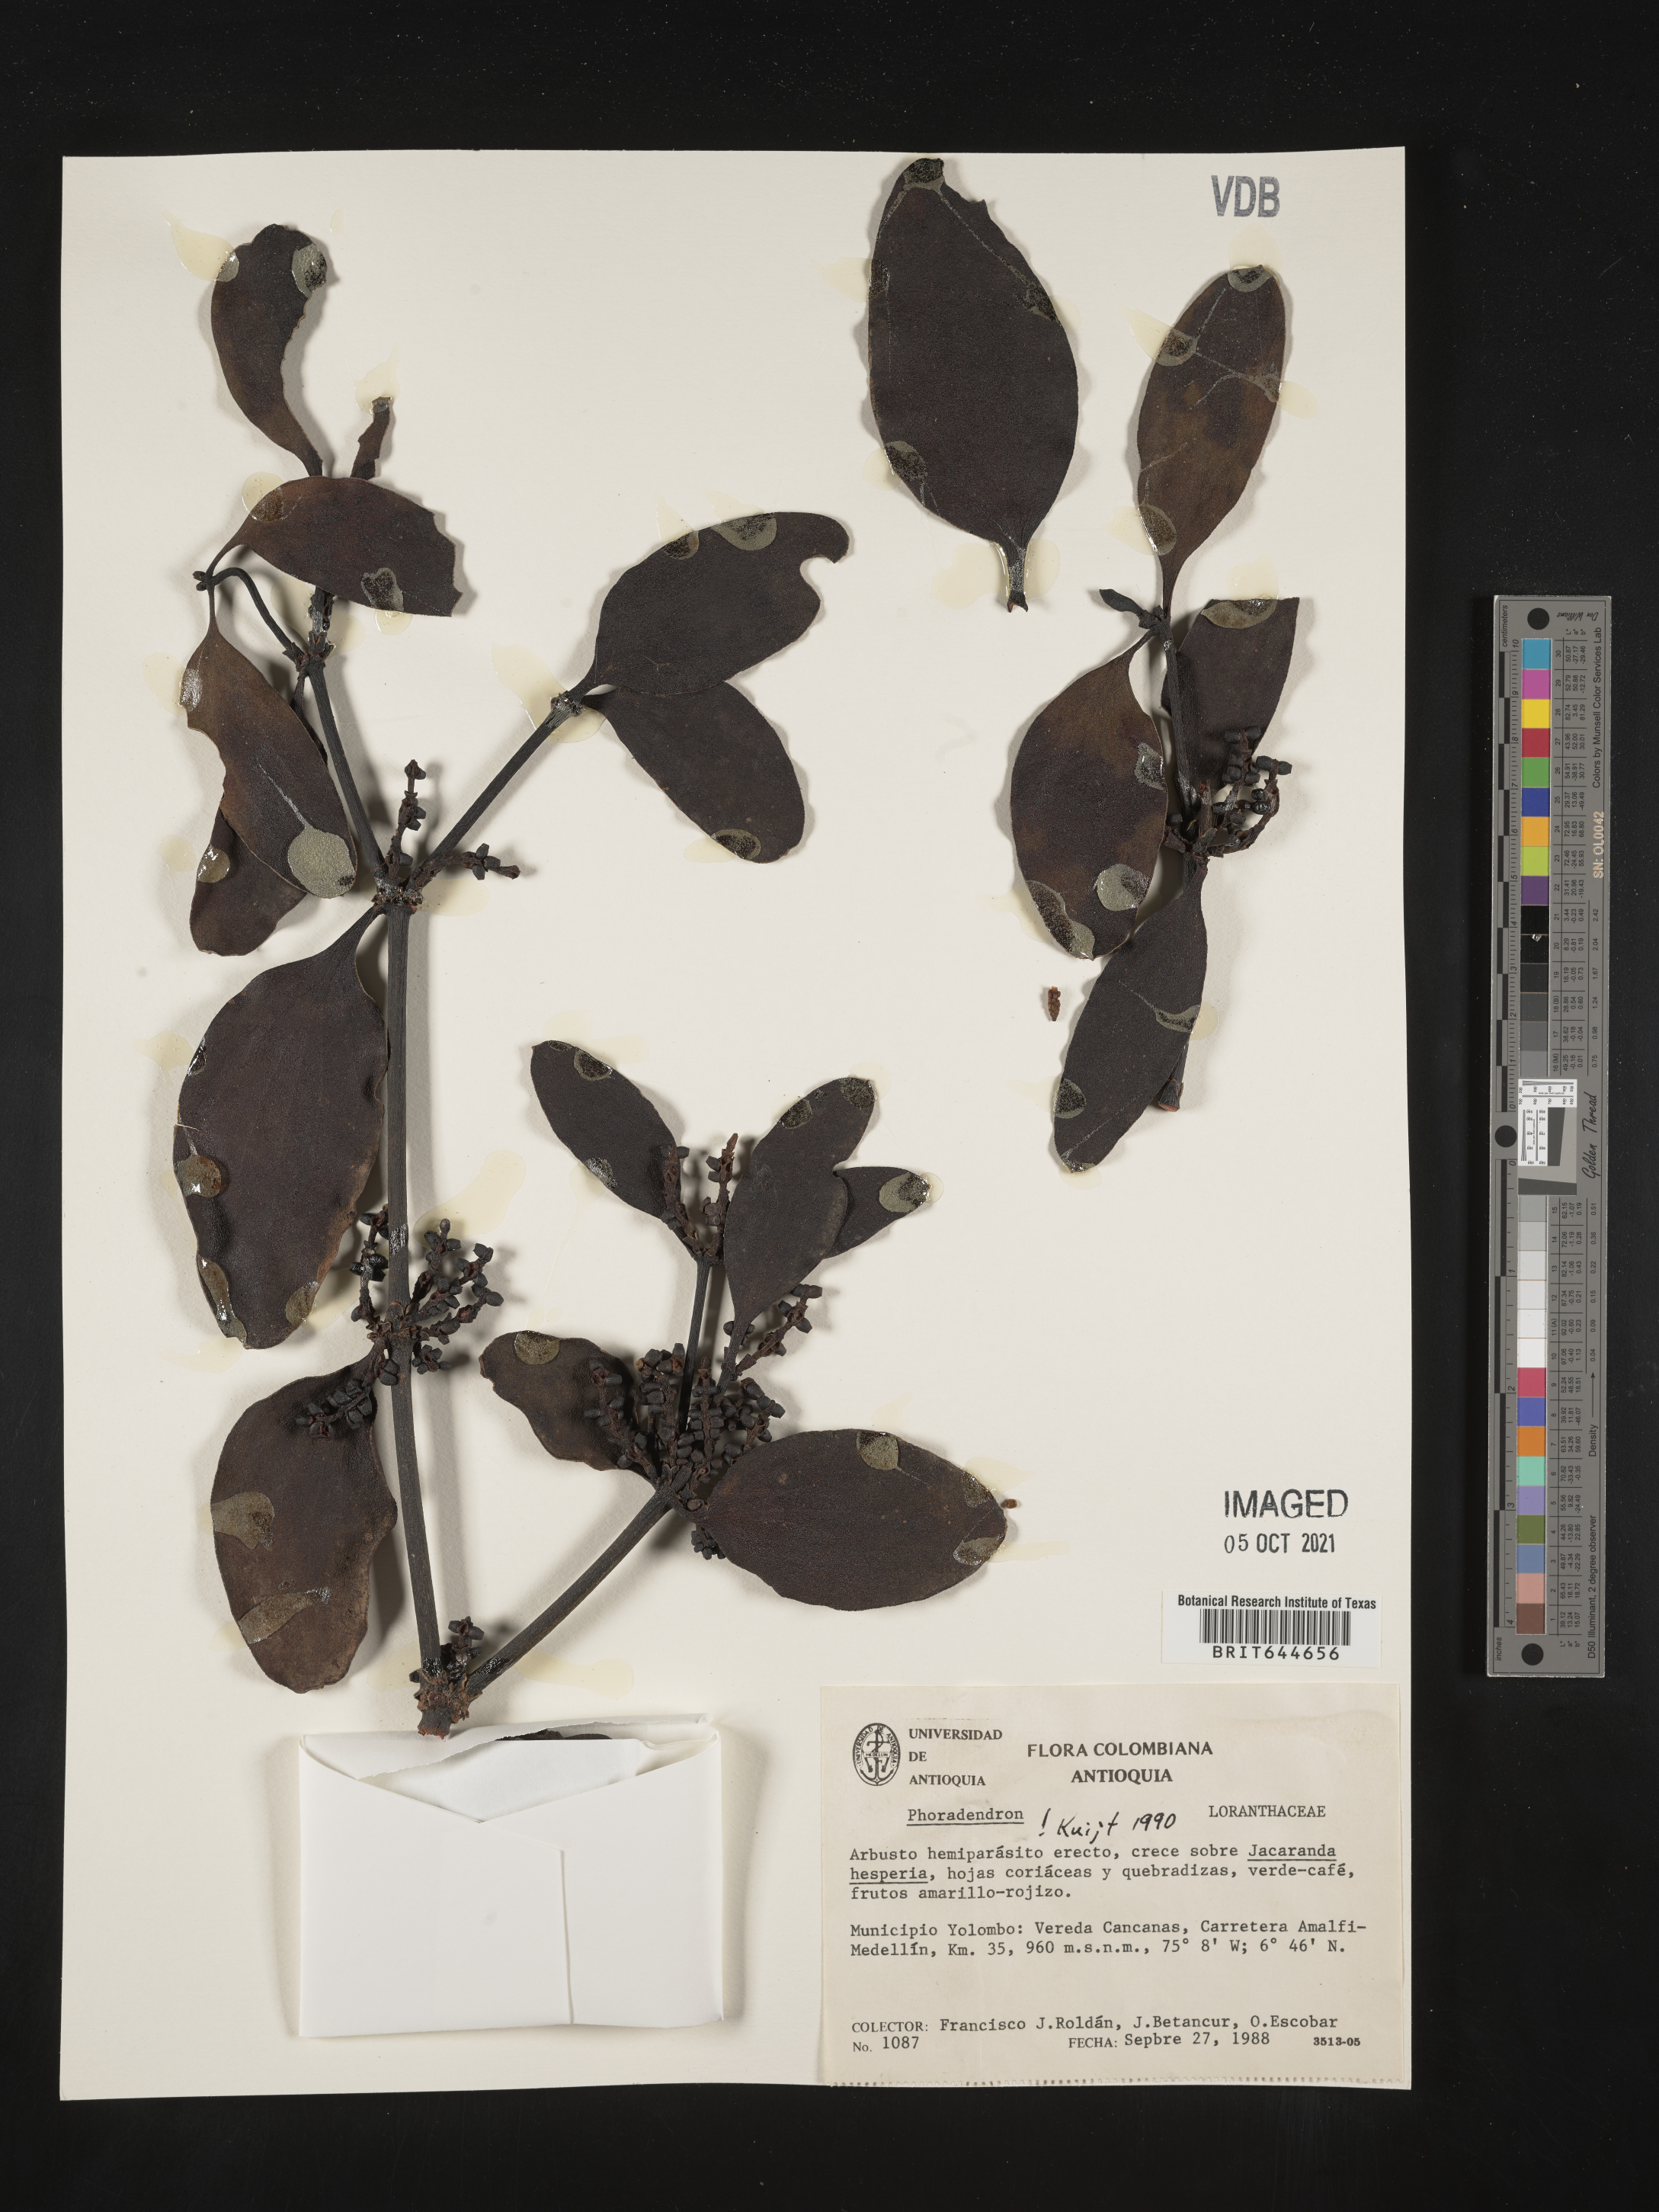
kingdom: Plantae
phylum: Tracheophyta
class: Magnoliopsida
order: Santalales
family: Viscaceae
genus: Phoradendron
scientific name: Phoradendron
